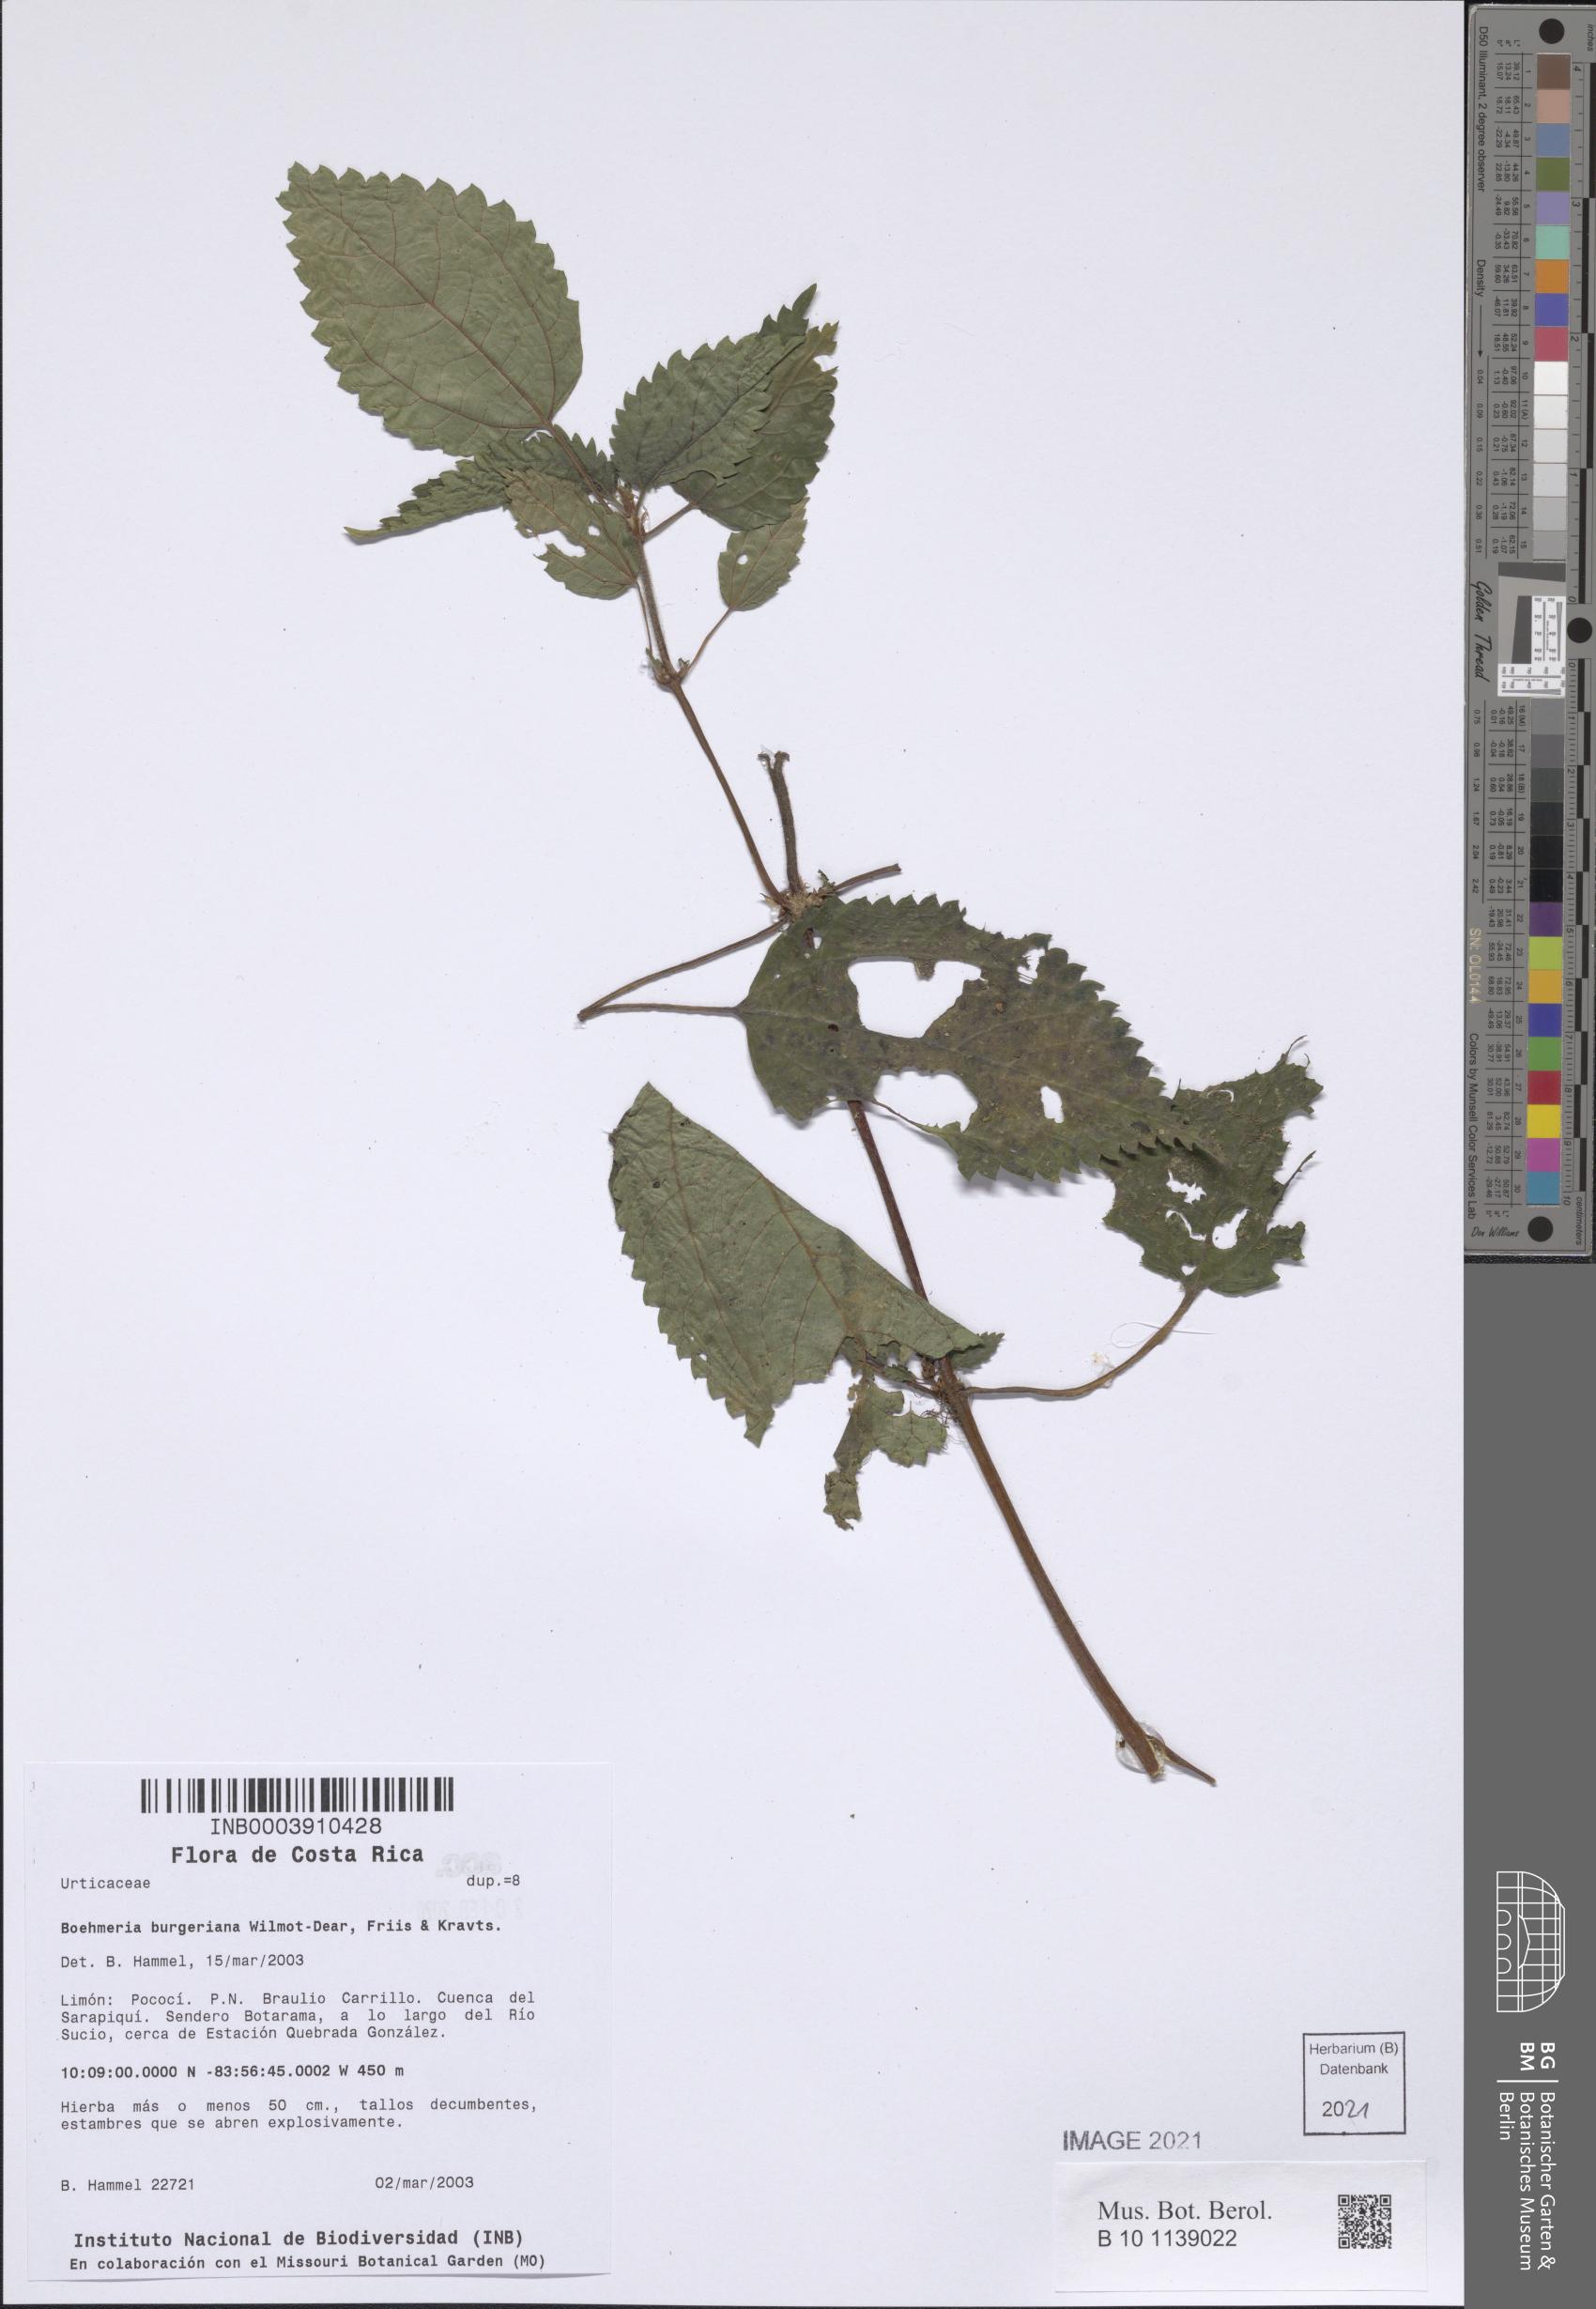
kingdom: Plantae
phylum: Tracheophyta
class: Magnoliopsida
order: Rosales
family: Urticaceae
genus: Boehmeria
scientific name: Boehmeria burgeriana
